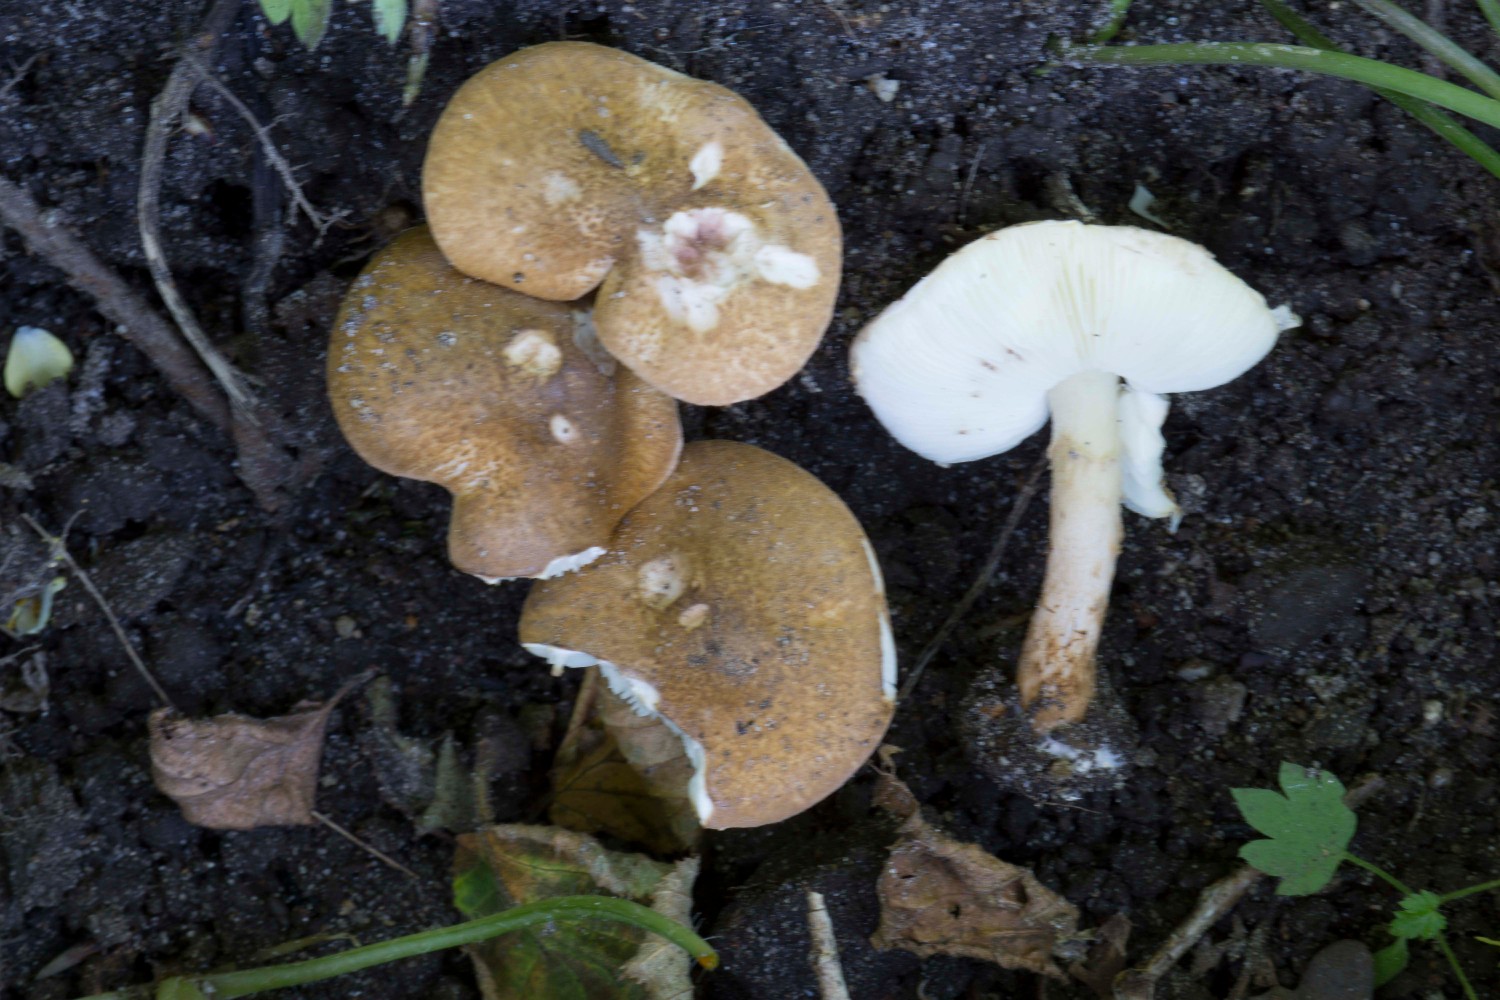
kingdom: Fungi
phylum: Basidiomycota
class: Agaricomycetes
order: Agaricales
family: Agaricaceae
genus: Leucocoprinus
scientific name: Leucocoprinus straminellus
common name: rustbrun parasolhat
